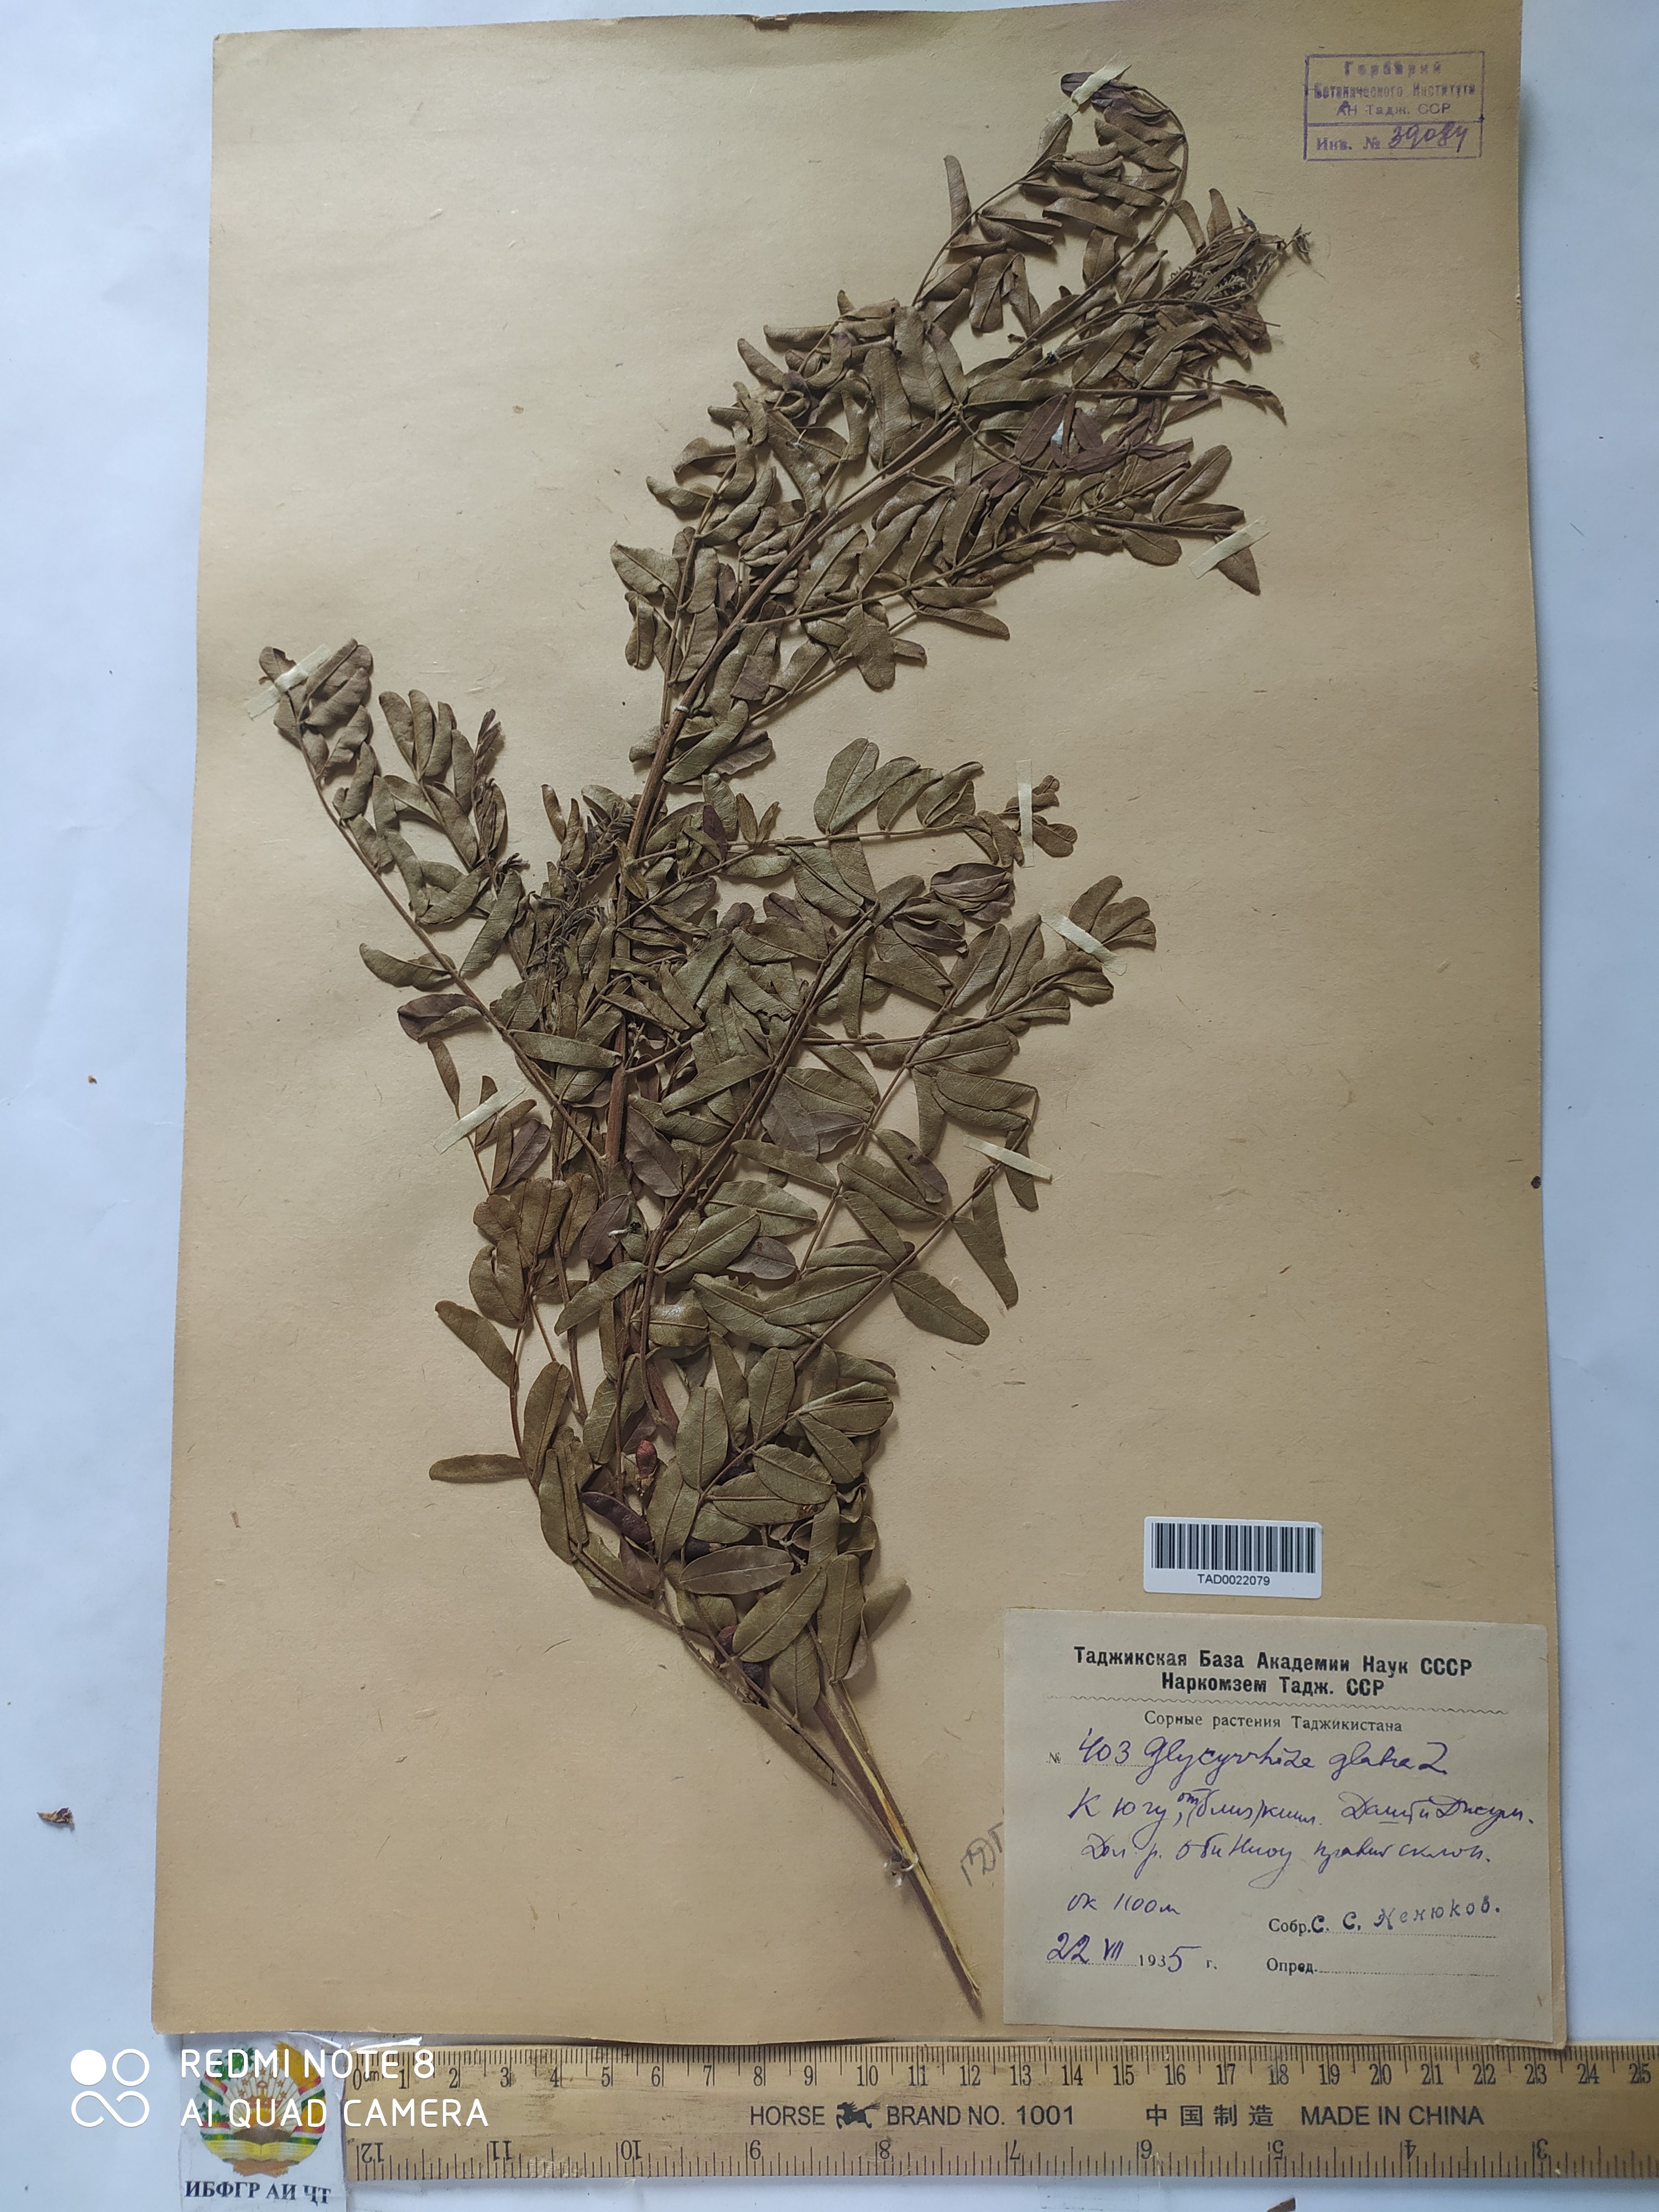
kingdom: Plantae
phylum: Tracheophyta
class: Magnoliopsida
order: Fabales
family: Fabaceae
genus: Glycyrrhiza
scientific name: Glycyrrhiza glabra
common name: Liquorice
